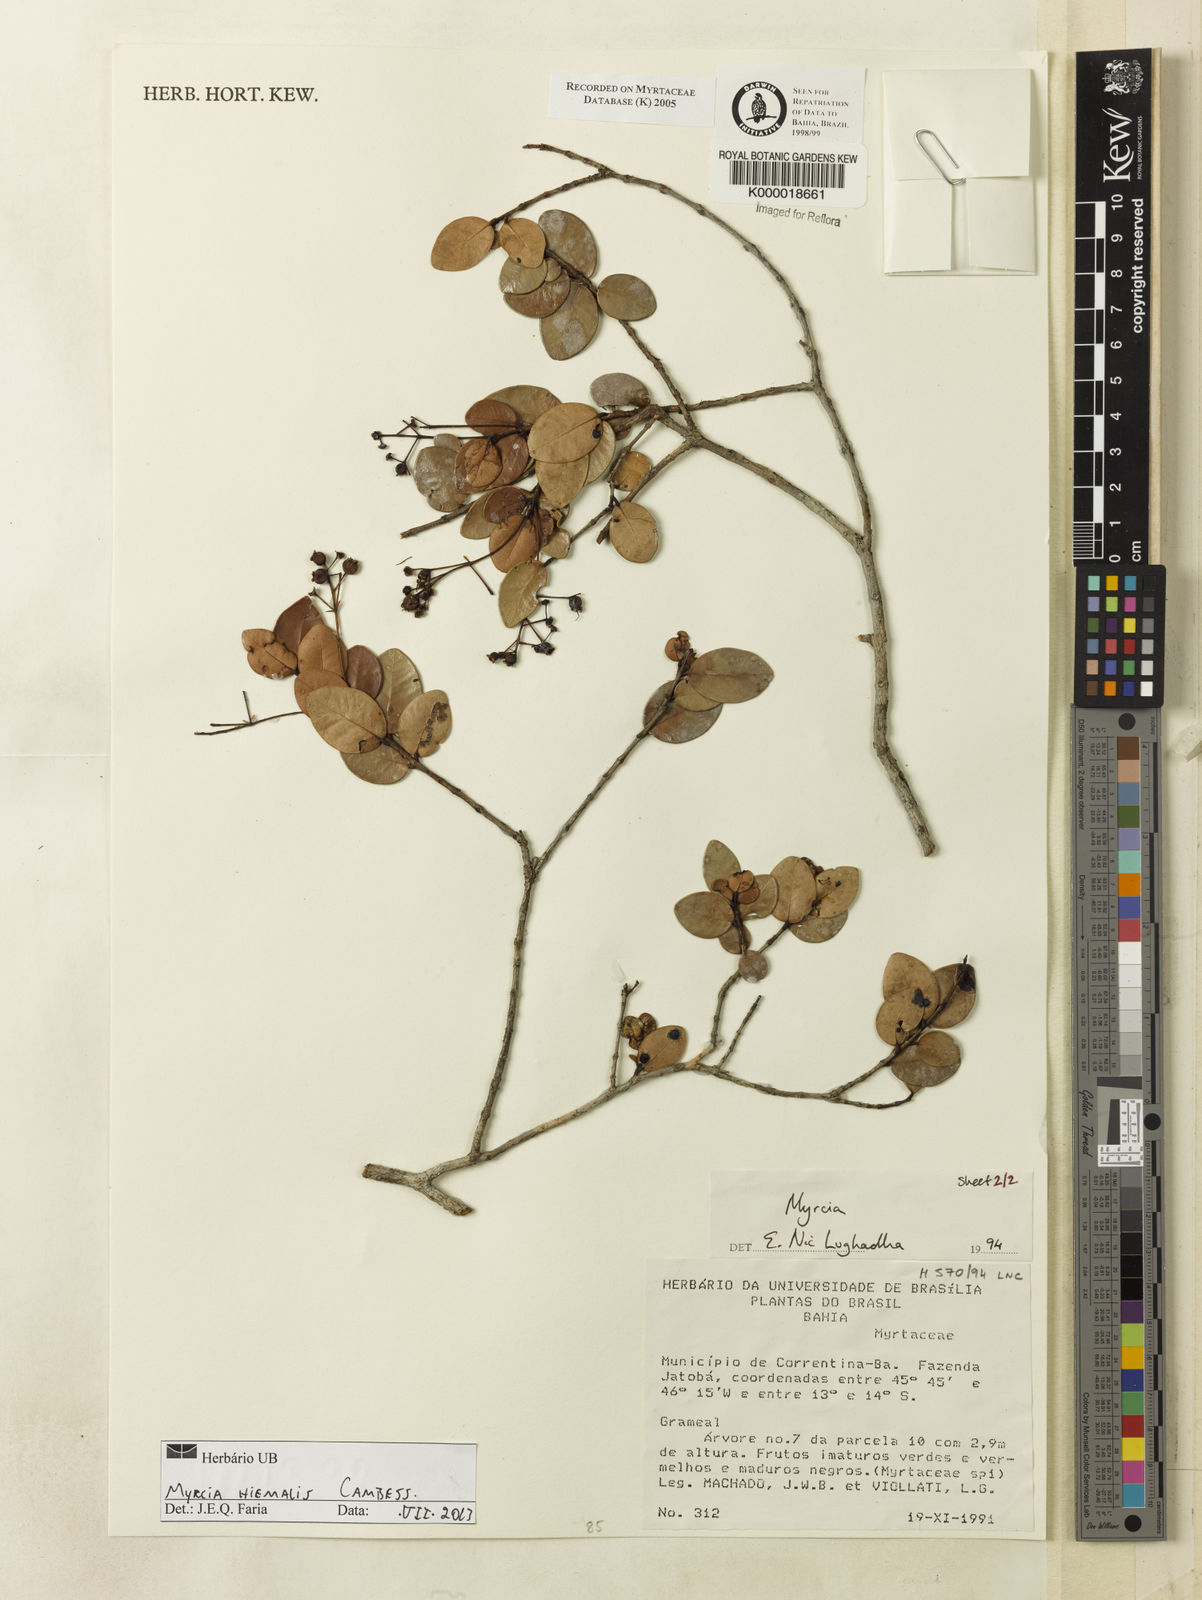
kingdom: Plantae
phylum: Tracheophyta
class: Magnoliopsida
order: Myrtales
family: Myrtaceae
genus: Myrcia
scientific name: Myrcia
